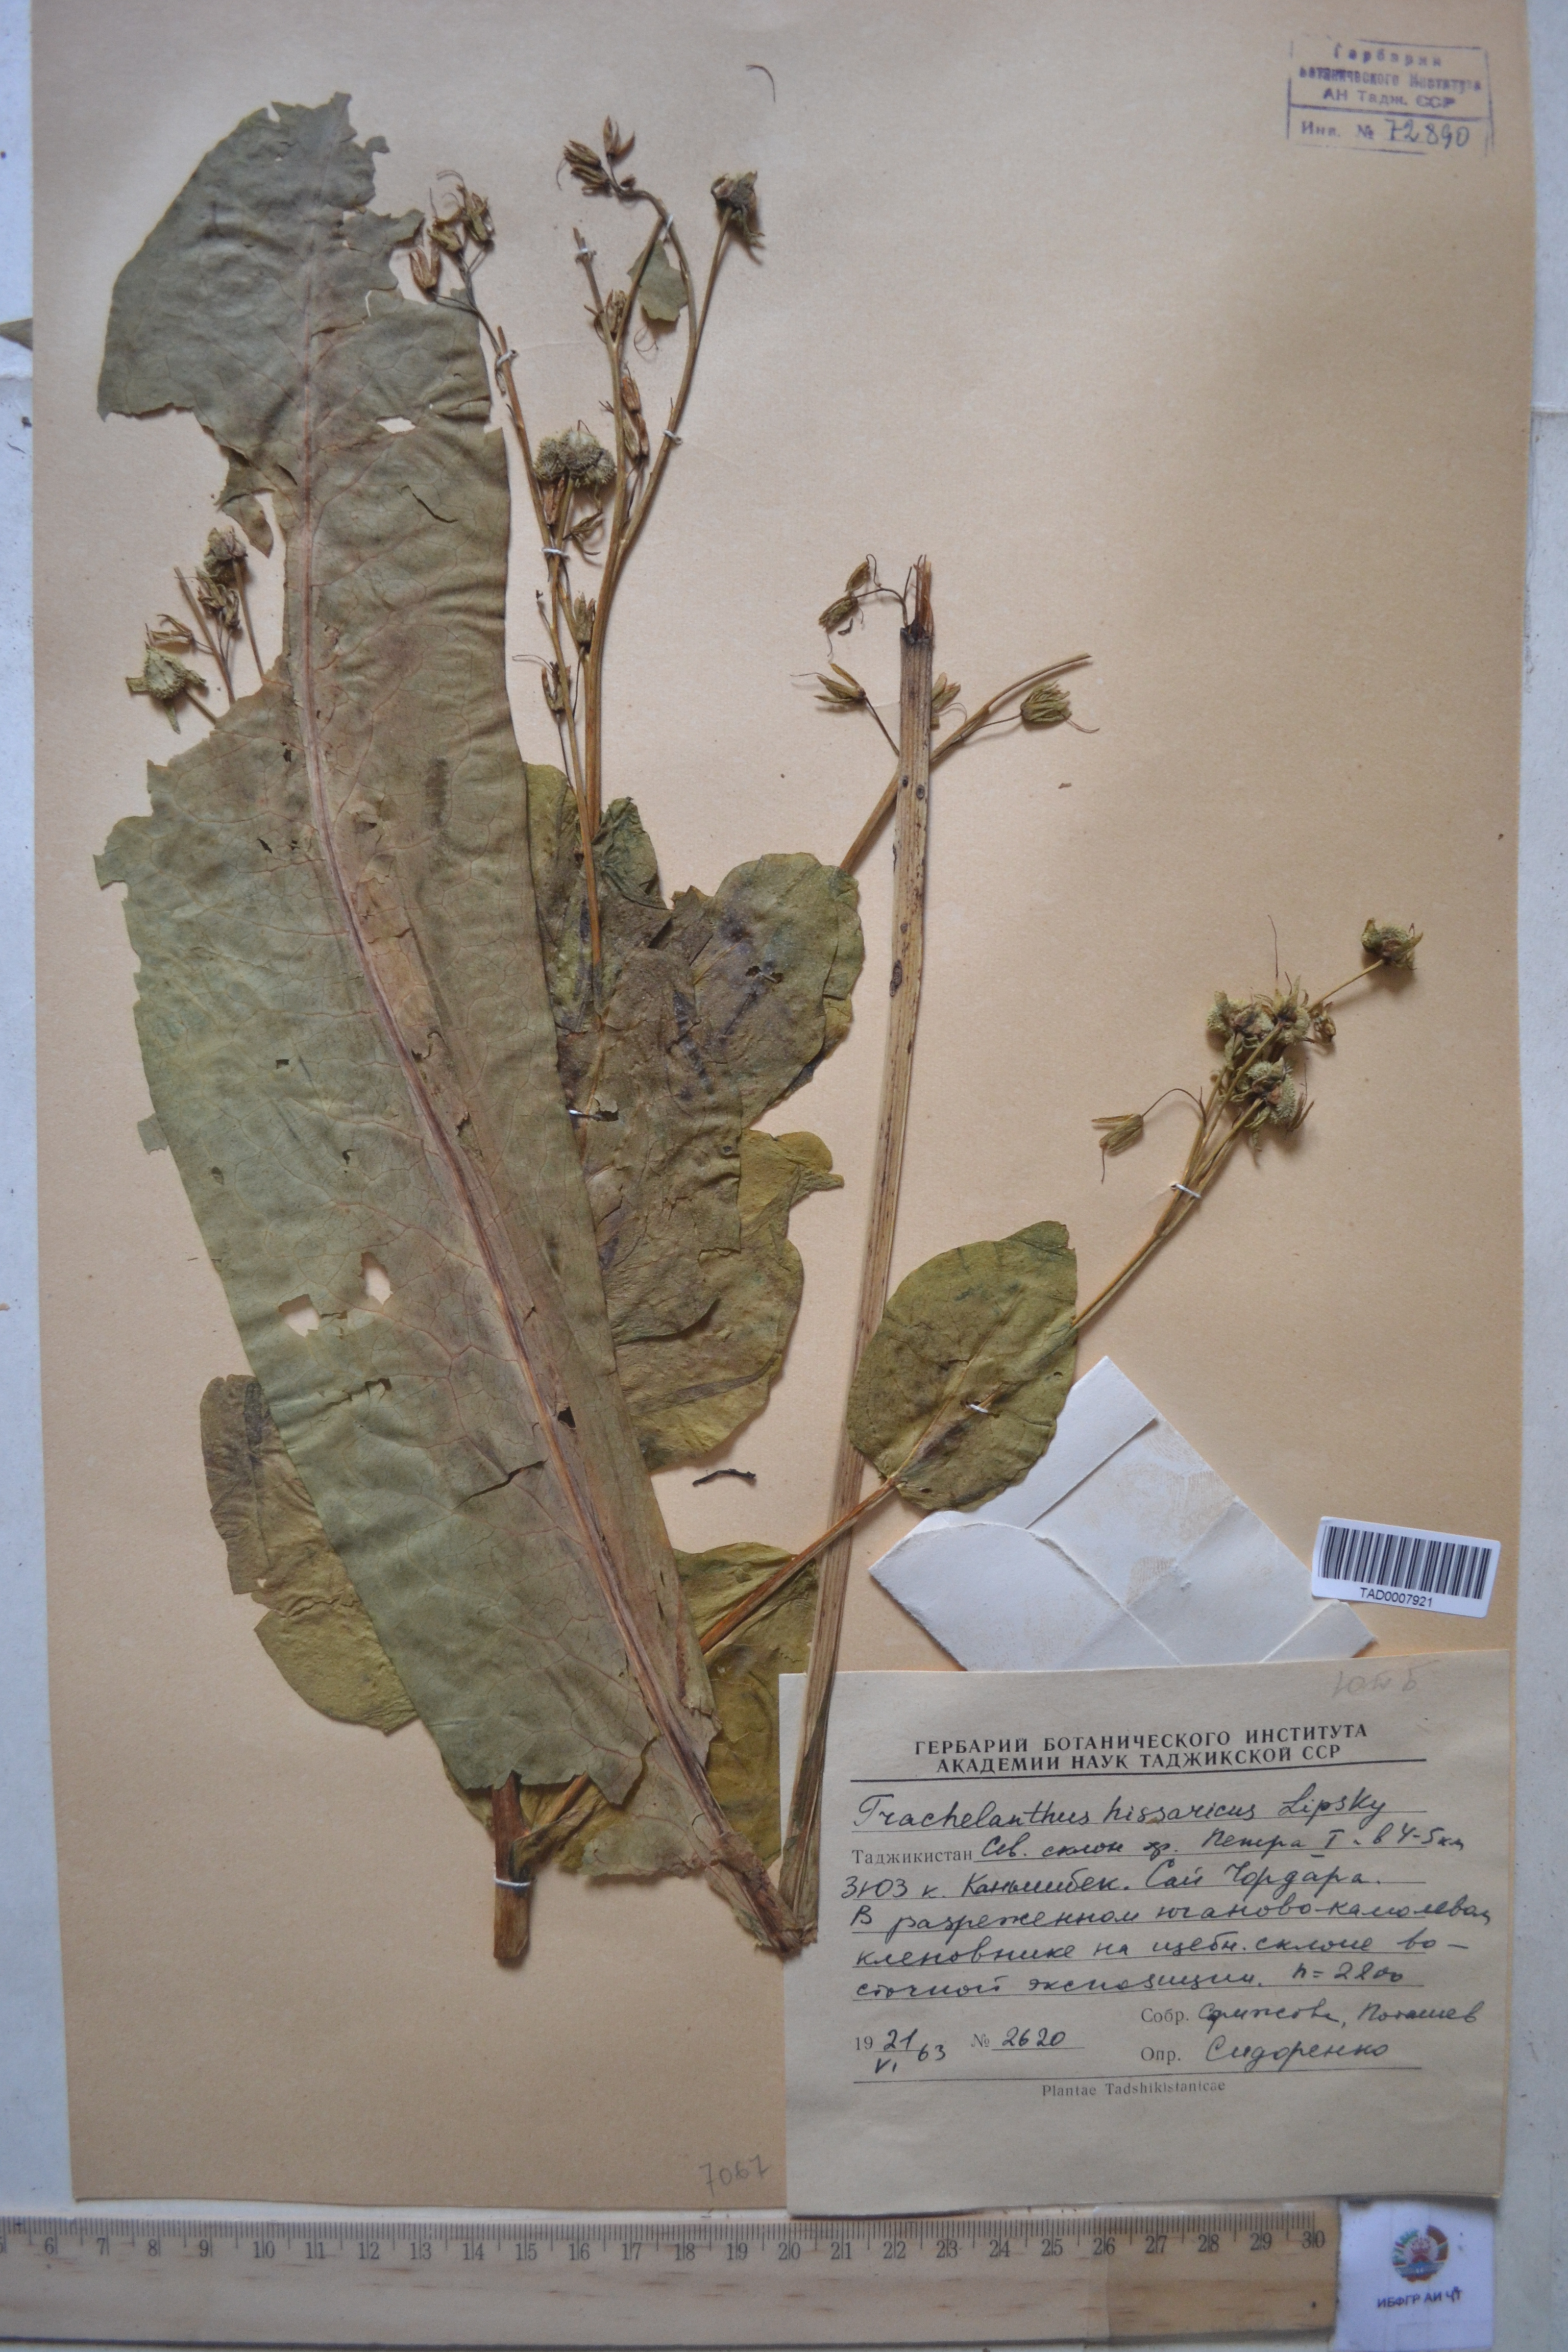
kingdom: Plantae
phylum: Tracheophyta
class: Magnoliopsida
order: Boraginales
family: Boraginaceae
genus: Lindelofia
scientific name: Lindelofia hissarica
